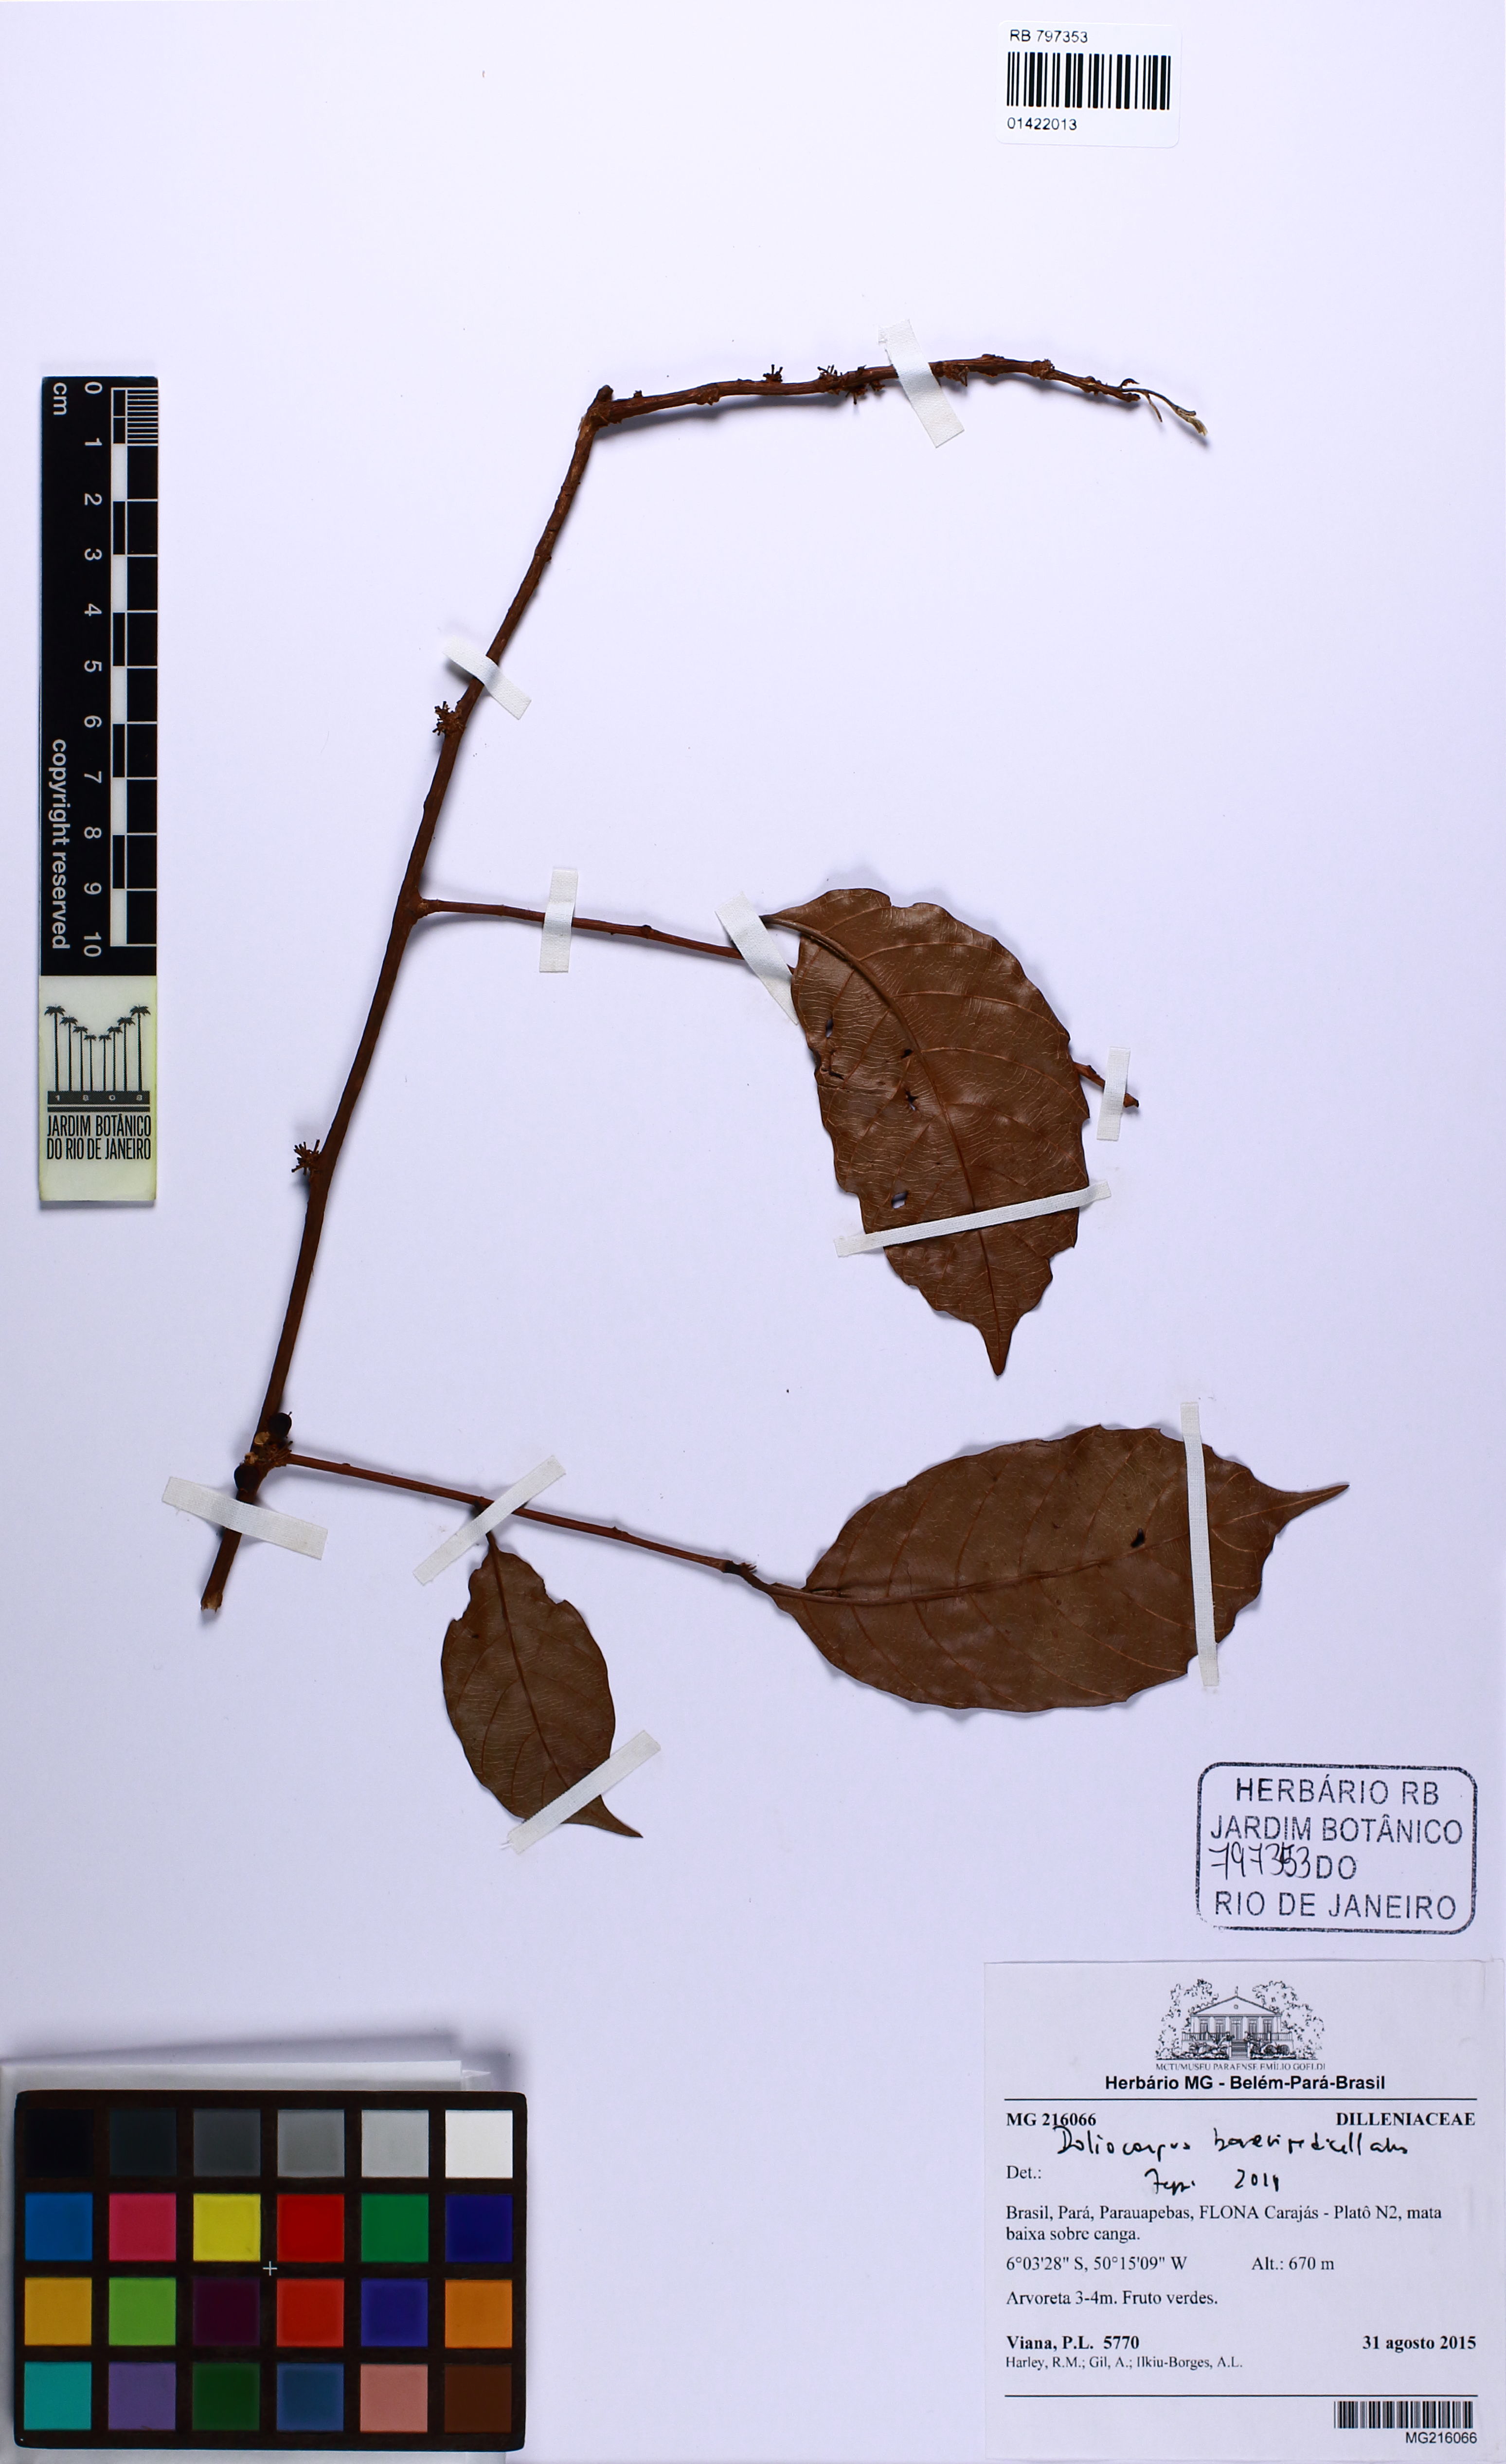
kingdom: Plantae
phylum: Tracheophyta
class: Magnoliopsida
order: Dilleniales
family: Dilleniaceae
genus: Doliocarpus
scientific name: Doliocarpus brevipedicellatus
